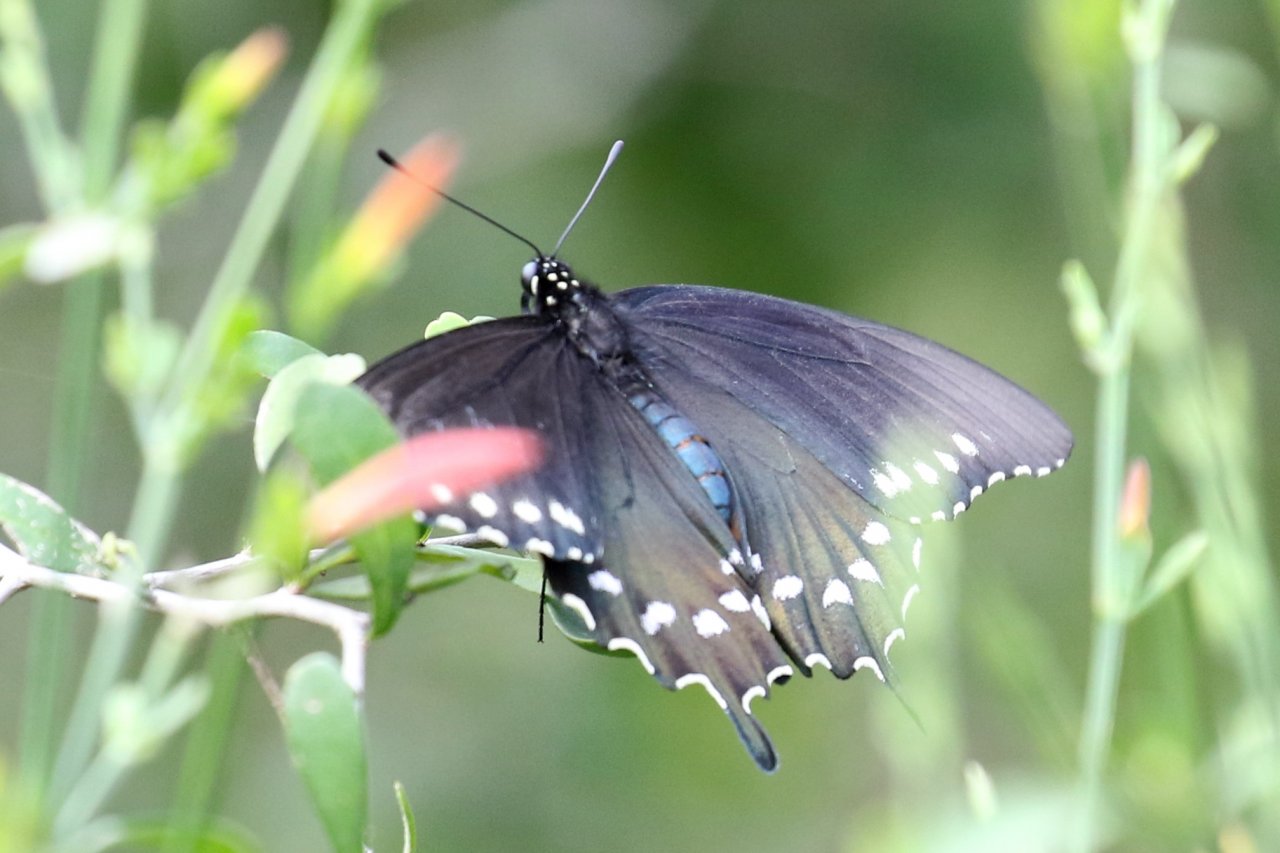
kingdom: Animalia
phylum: Arthropoda
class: Insecta
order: Lepidoptera
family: Papilionidae
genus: Battus
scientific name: Battus philenor
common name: Pipevine Swallowtail
